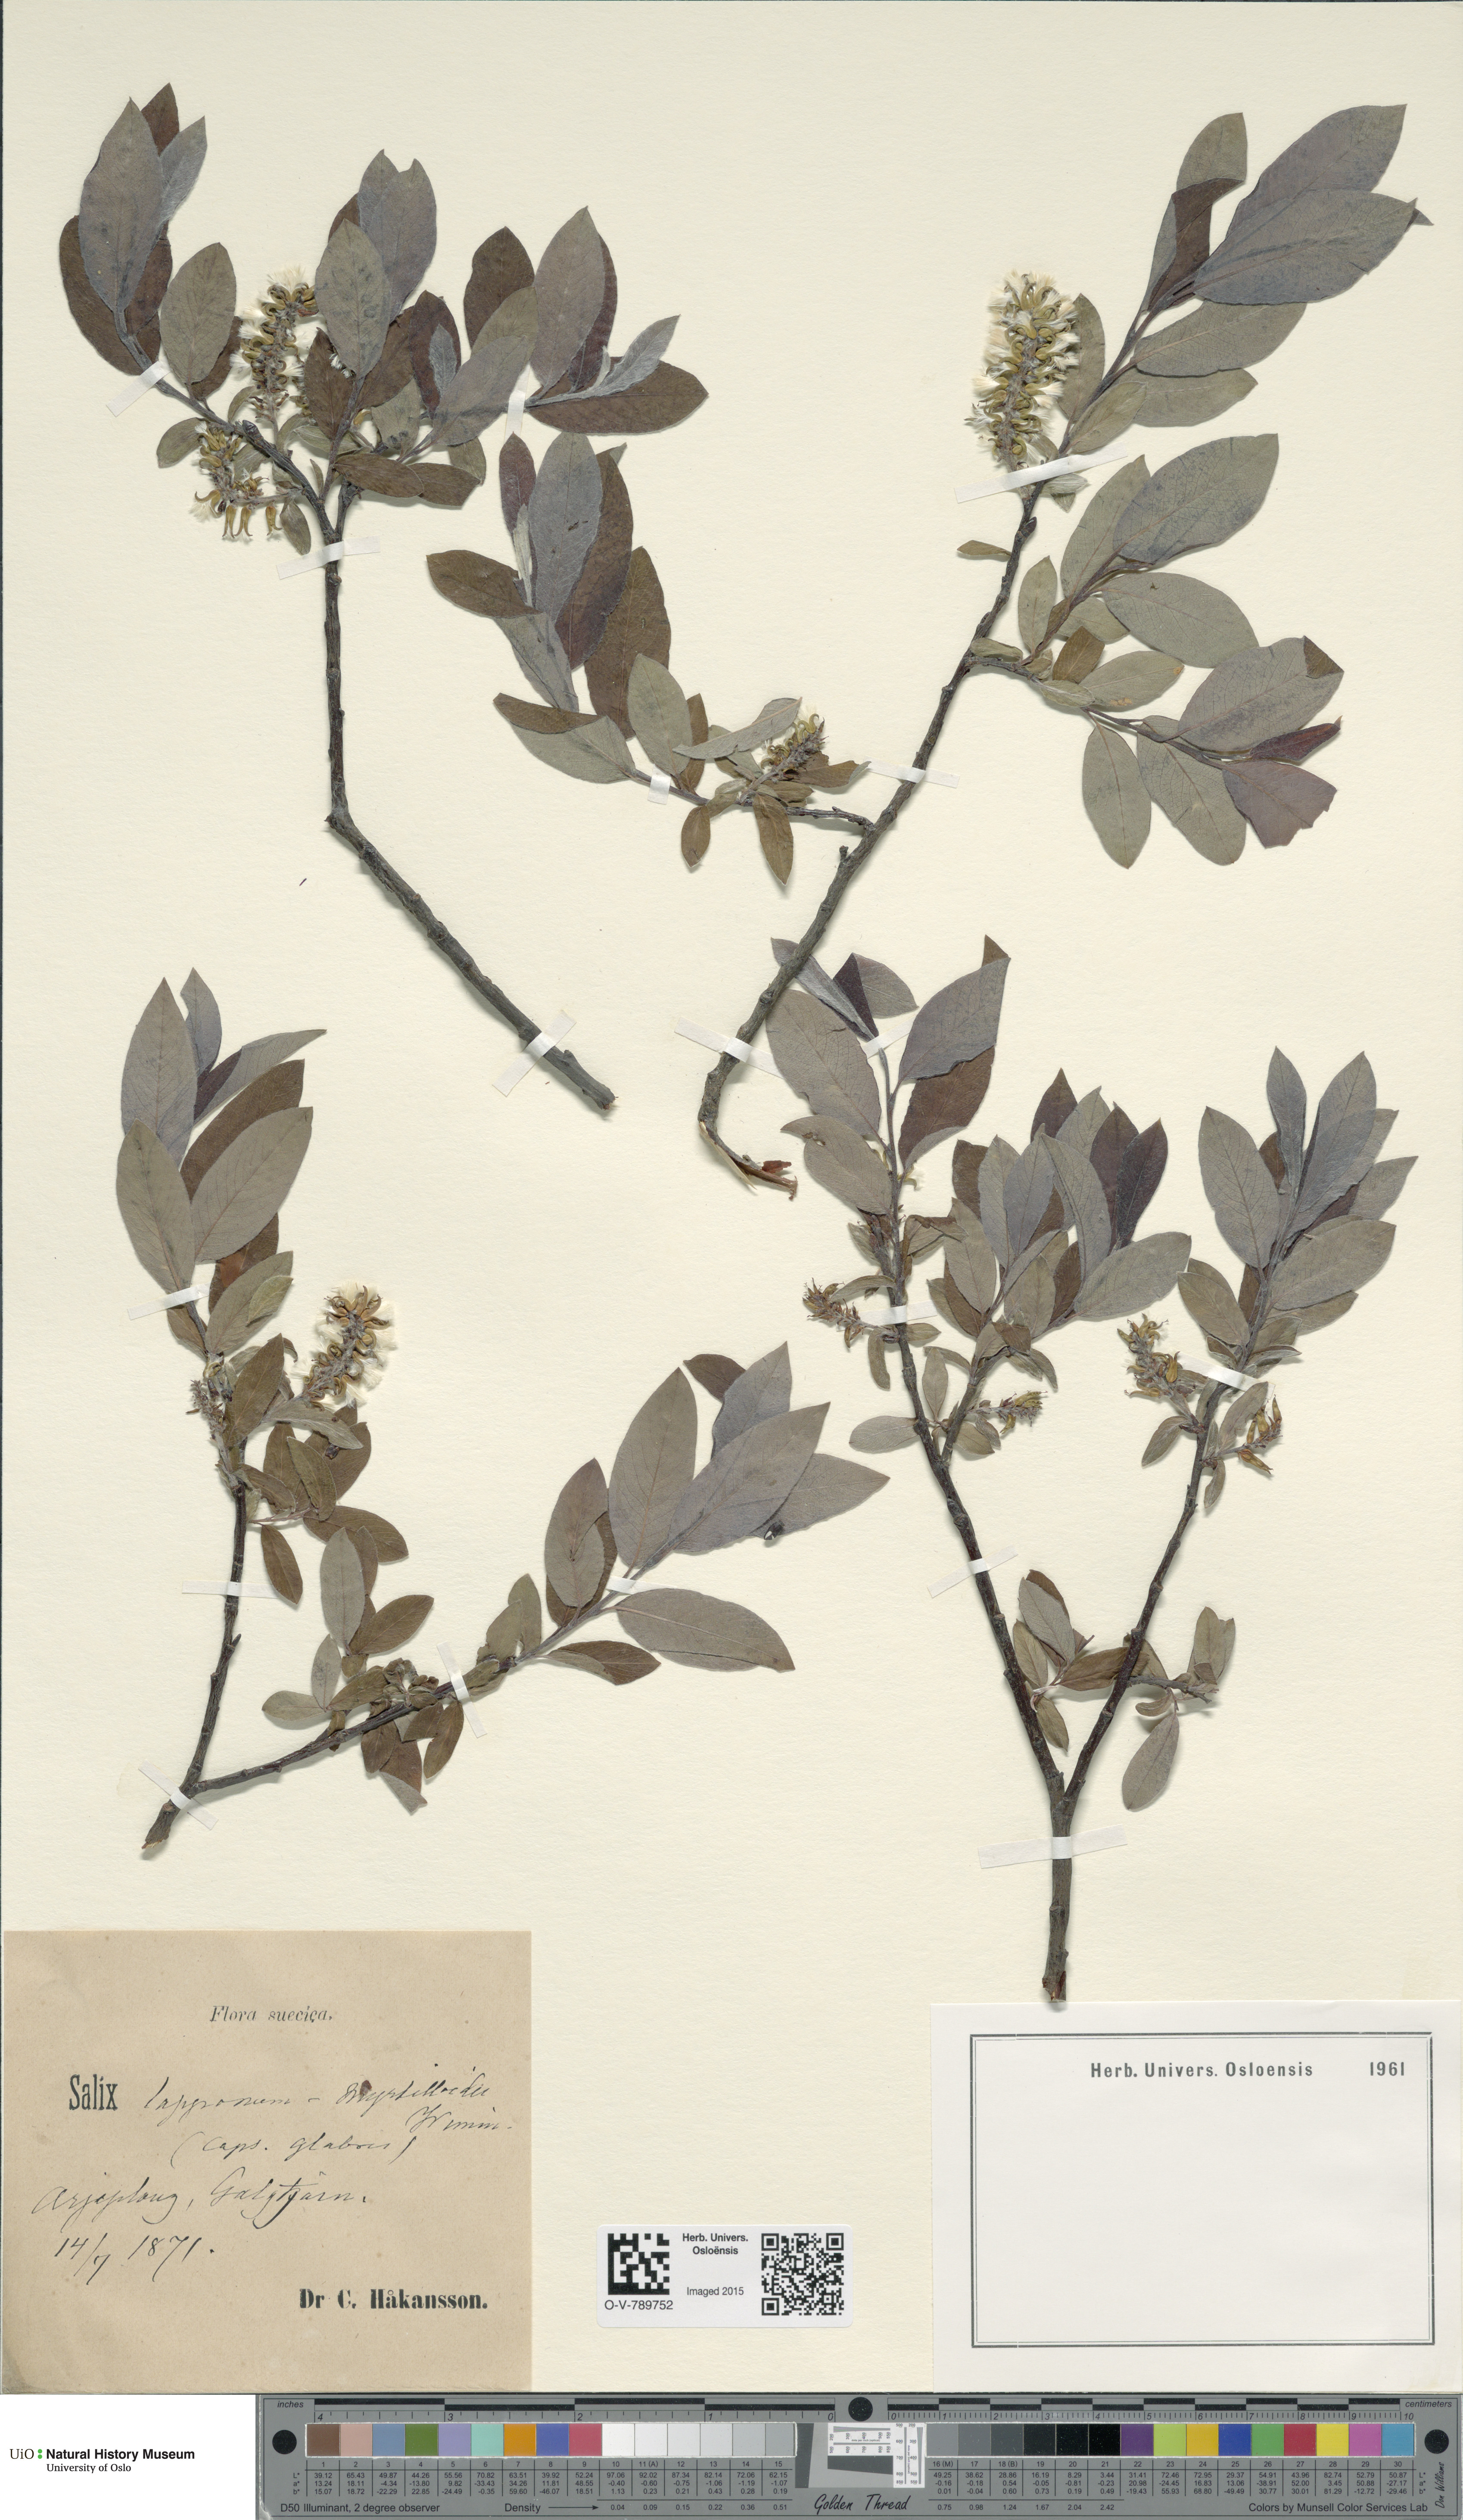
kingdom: Plantae
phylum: Tracheophyta
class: Magnoliopsida
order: Malpighiales
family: Salicaceae
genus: Salix
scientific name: Salix
